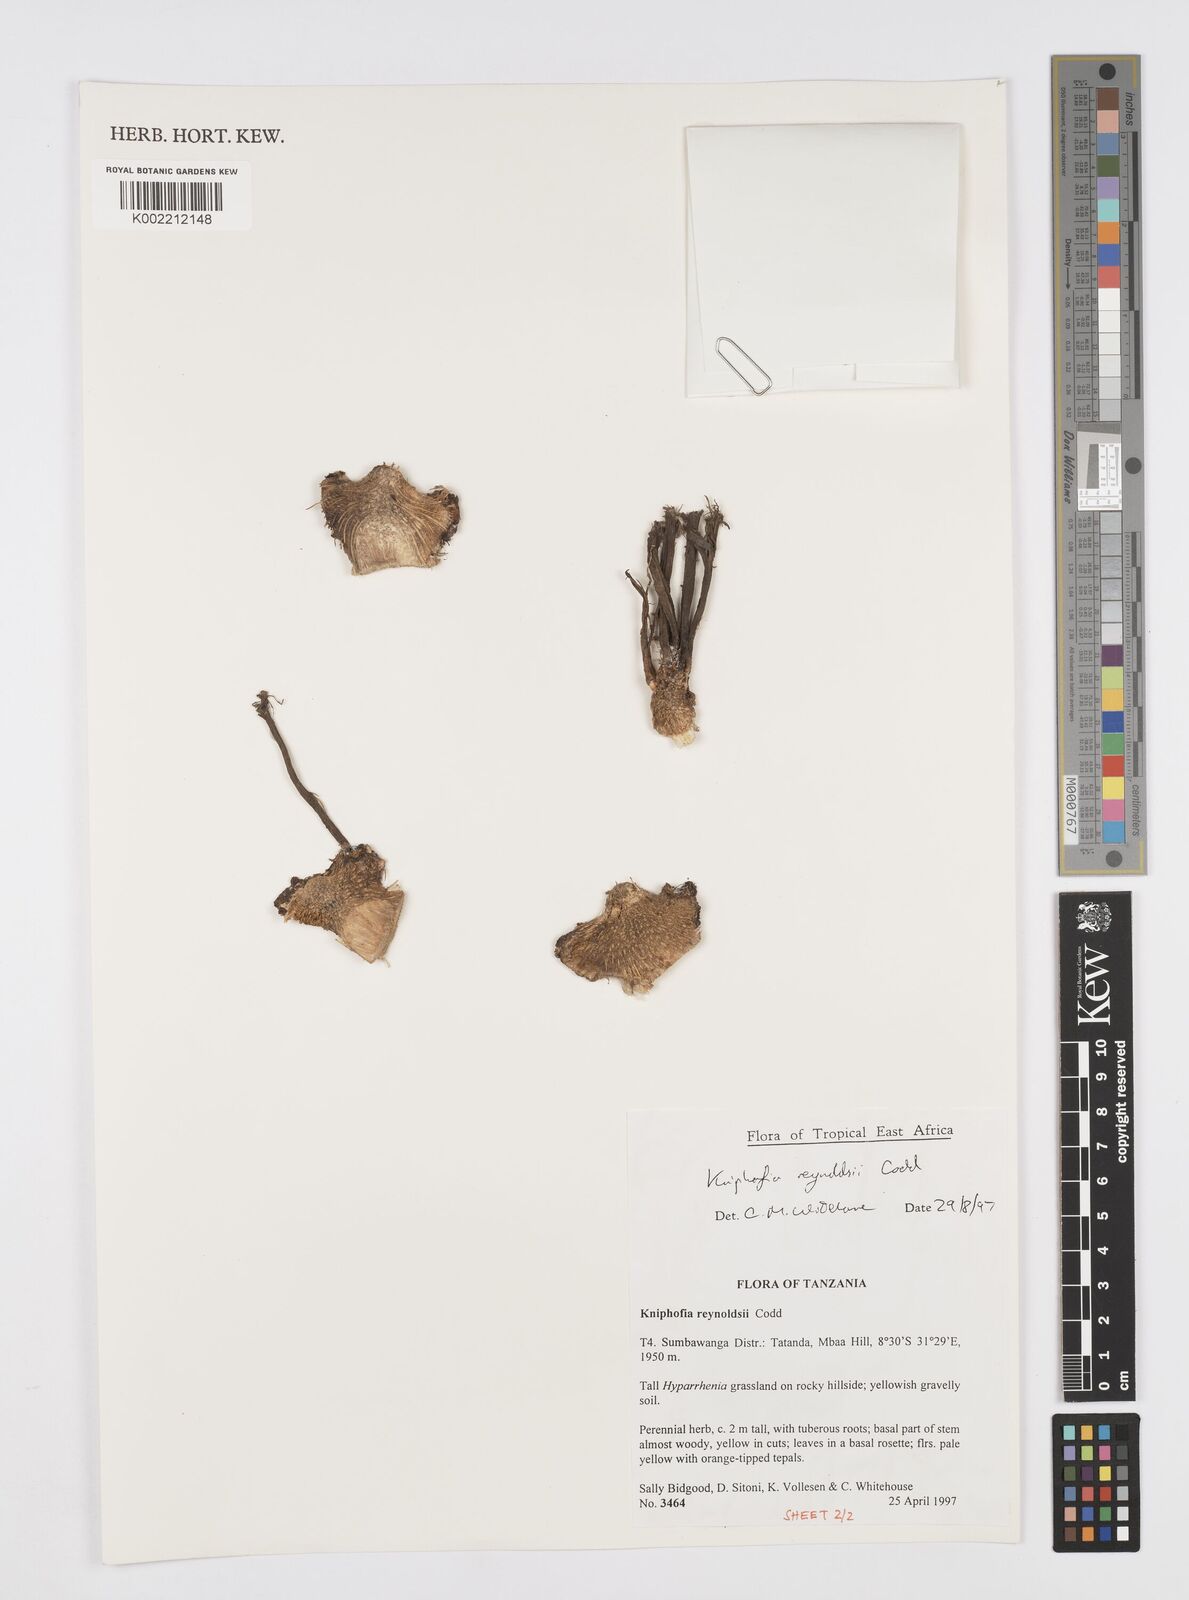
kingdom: Plantae
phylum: Tracheophyta
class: Liliopsida
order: Asparagales
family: Asphodelaceae
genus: Kniphofia
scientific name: Kniphofia reynoldsii
